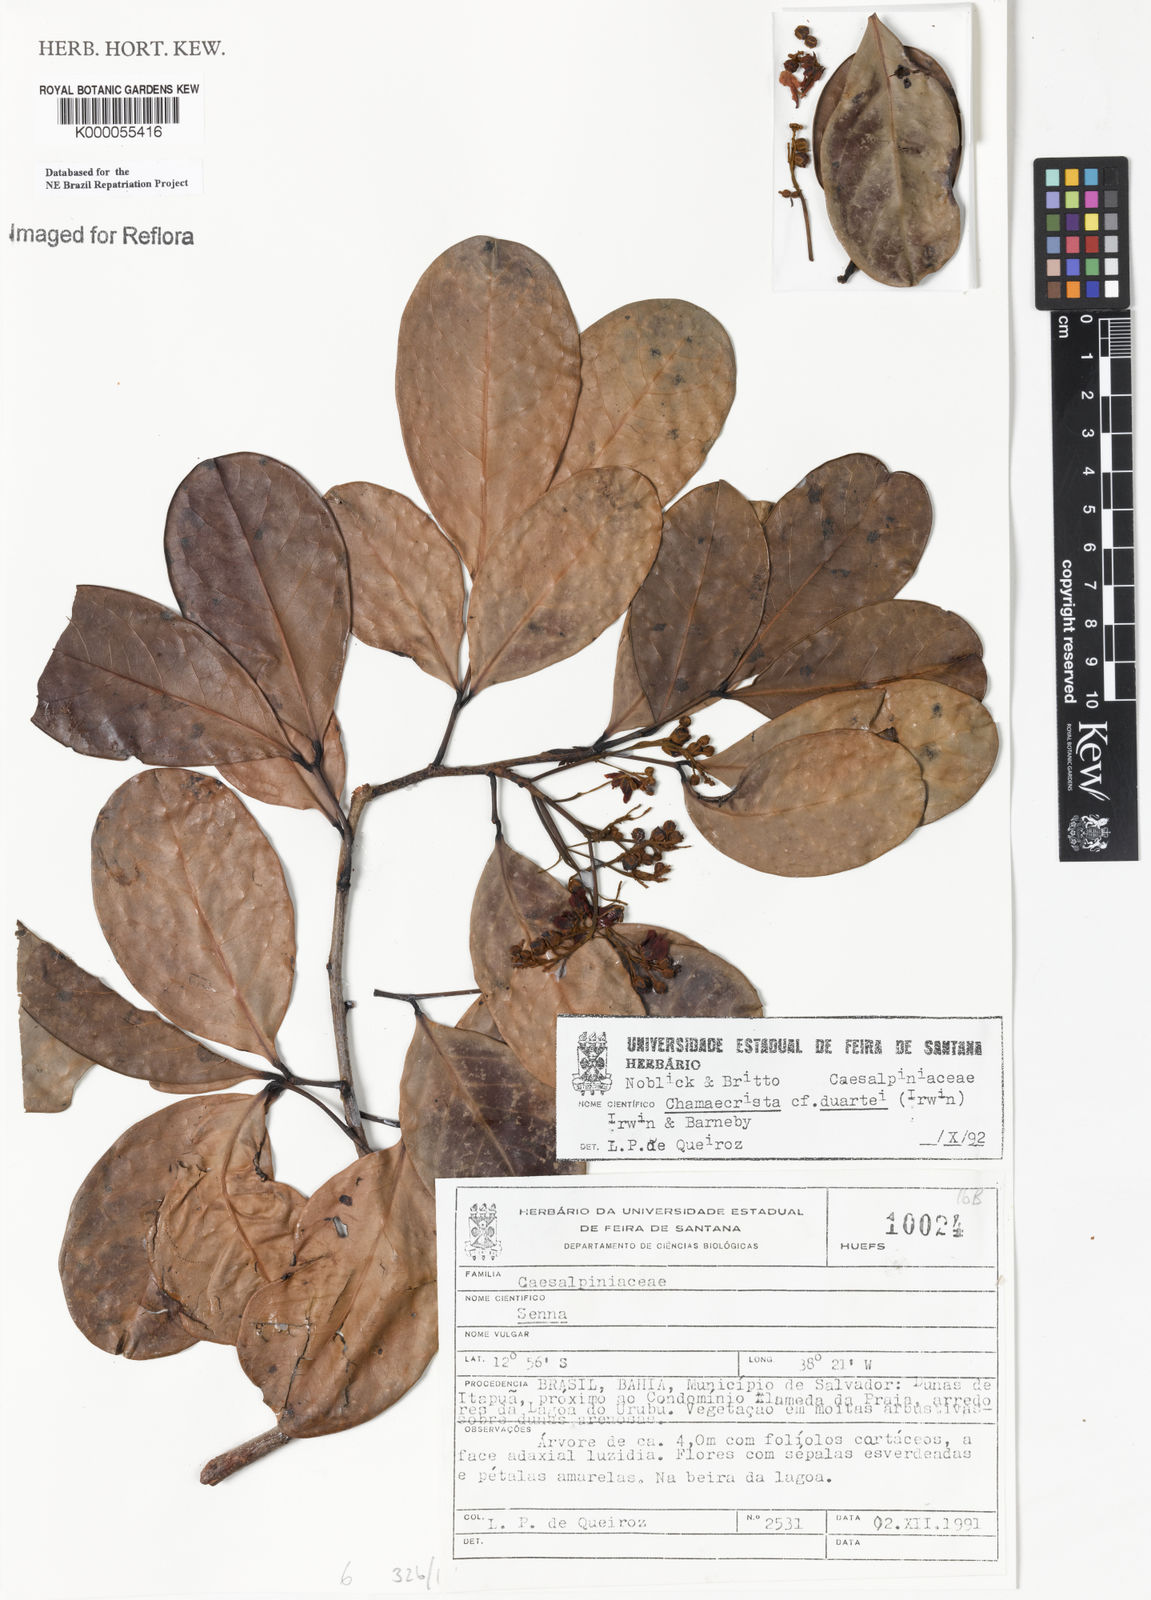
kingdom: Plantae
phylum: Tracheophyta
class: Magnoliopsida
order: Fabales
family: Fabaceae
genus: Chamaecrista
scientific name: Chamaecrista duartei
